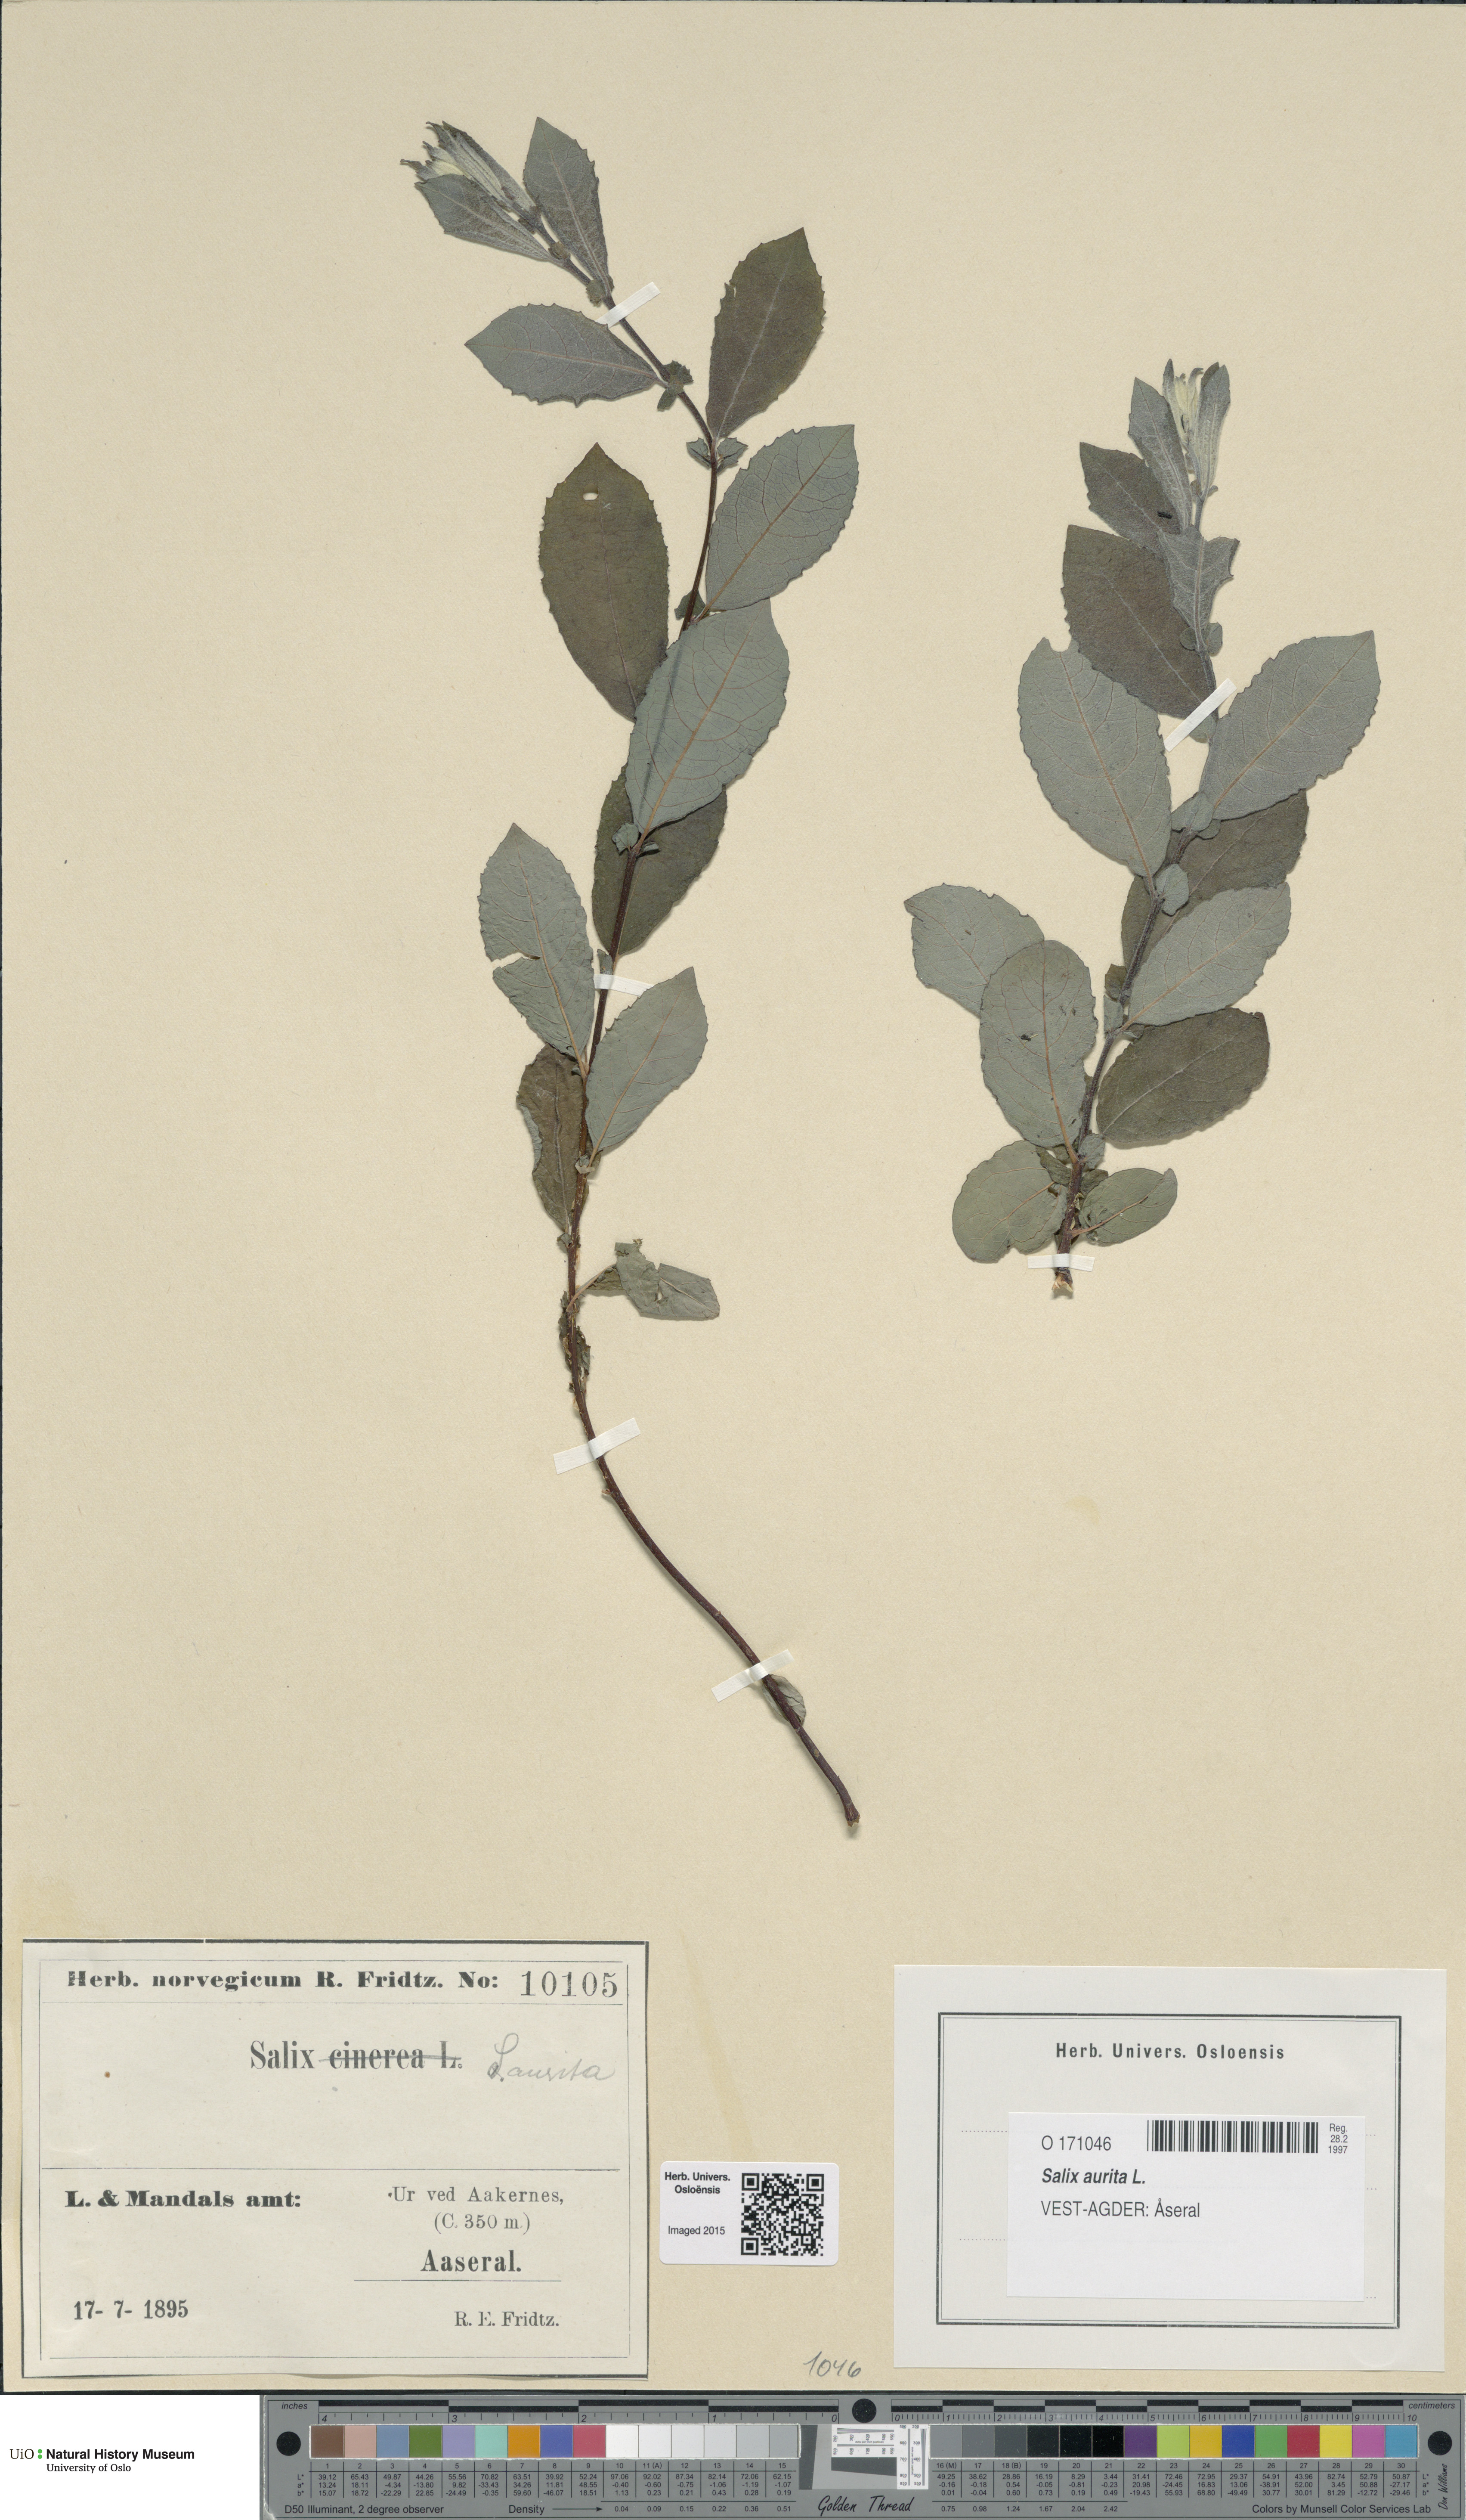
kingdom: Plantae
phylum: Tracheophyta
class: Magnoliopsida
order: Malpighiales
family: Salicaceae
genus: Salix
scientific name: Salix aurita
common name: Eared willow
